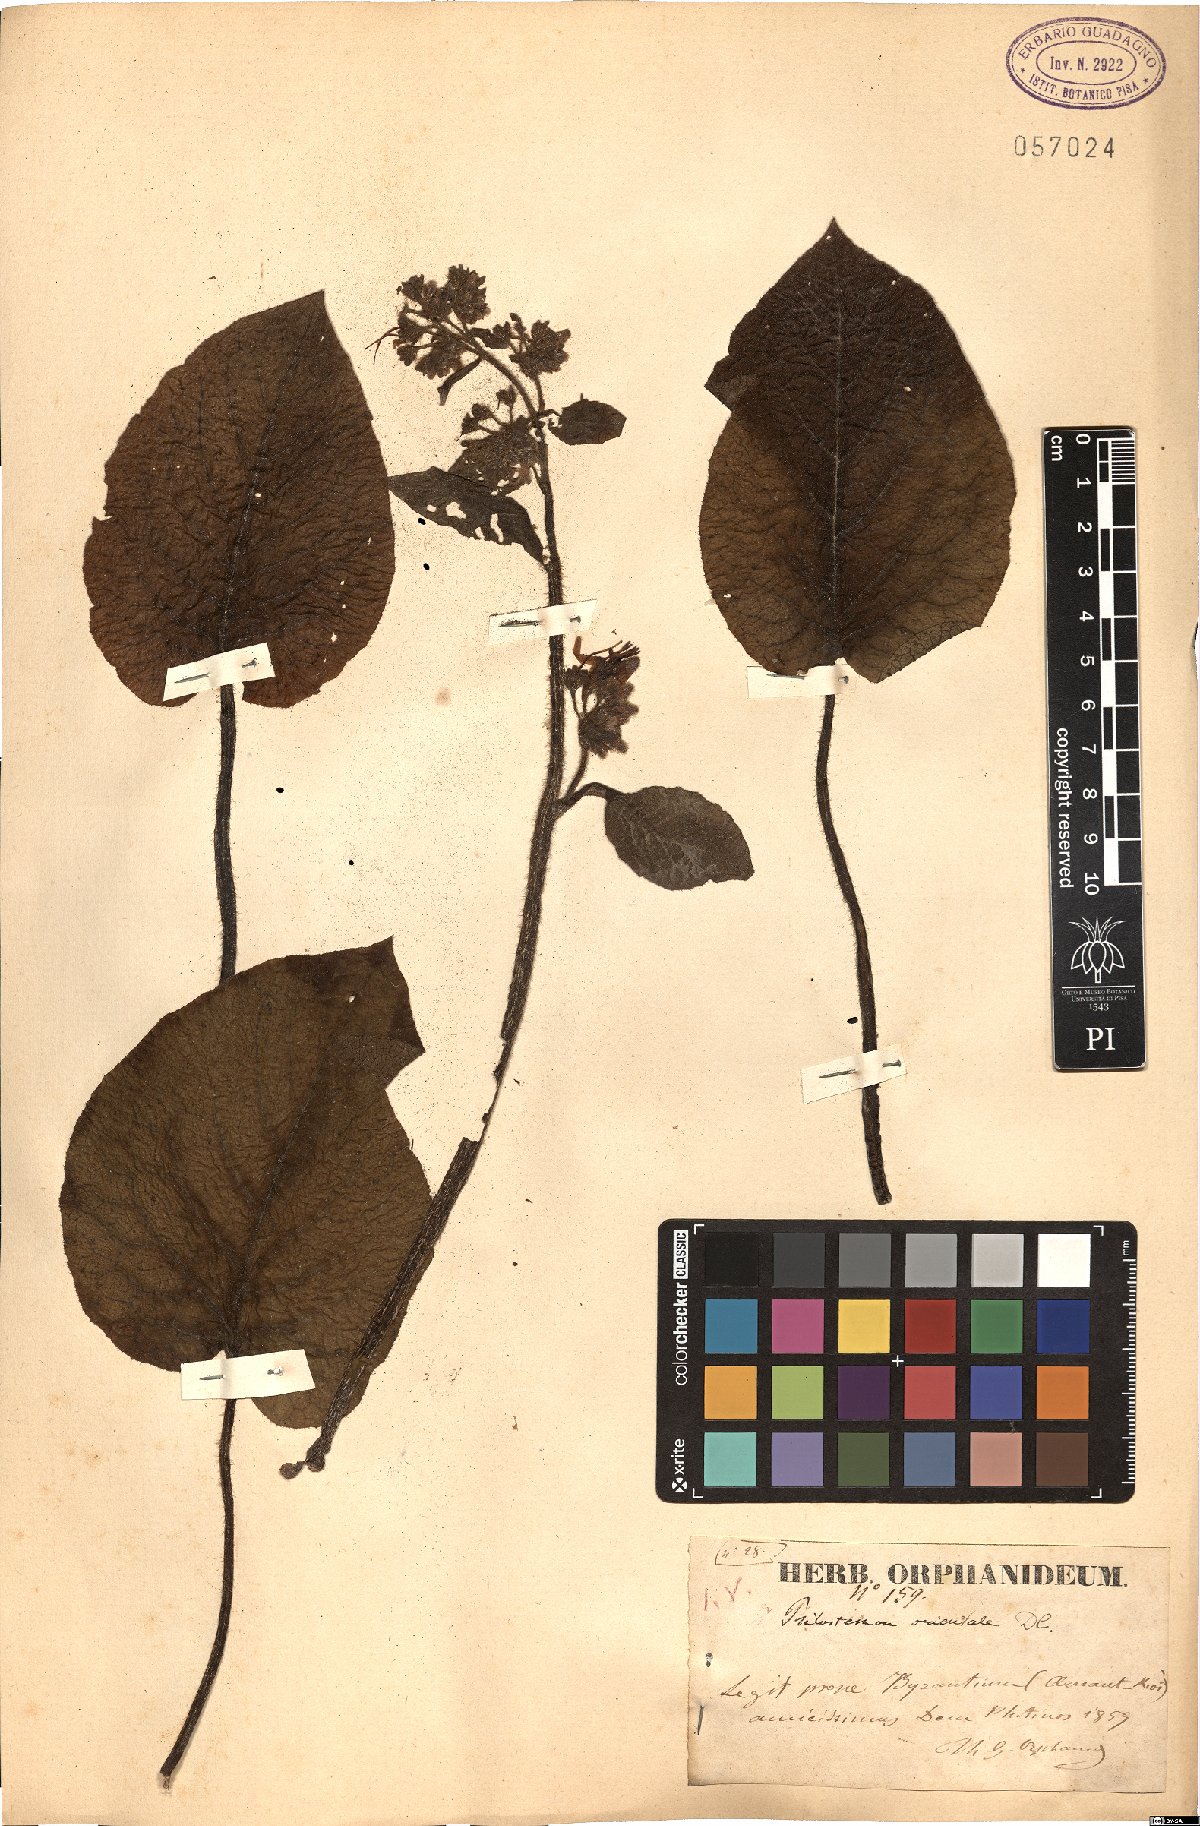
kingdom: Plantae
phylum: Tracheophyta
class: Magnoliopsida
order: Boraginales
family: Boraginaceae
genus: Trachystemon
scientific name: Trachystemon orientale
